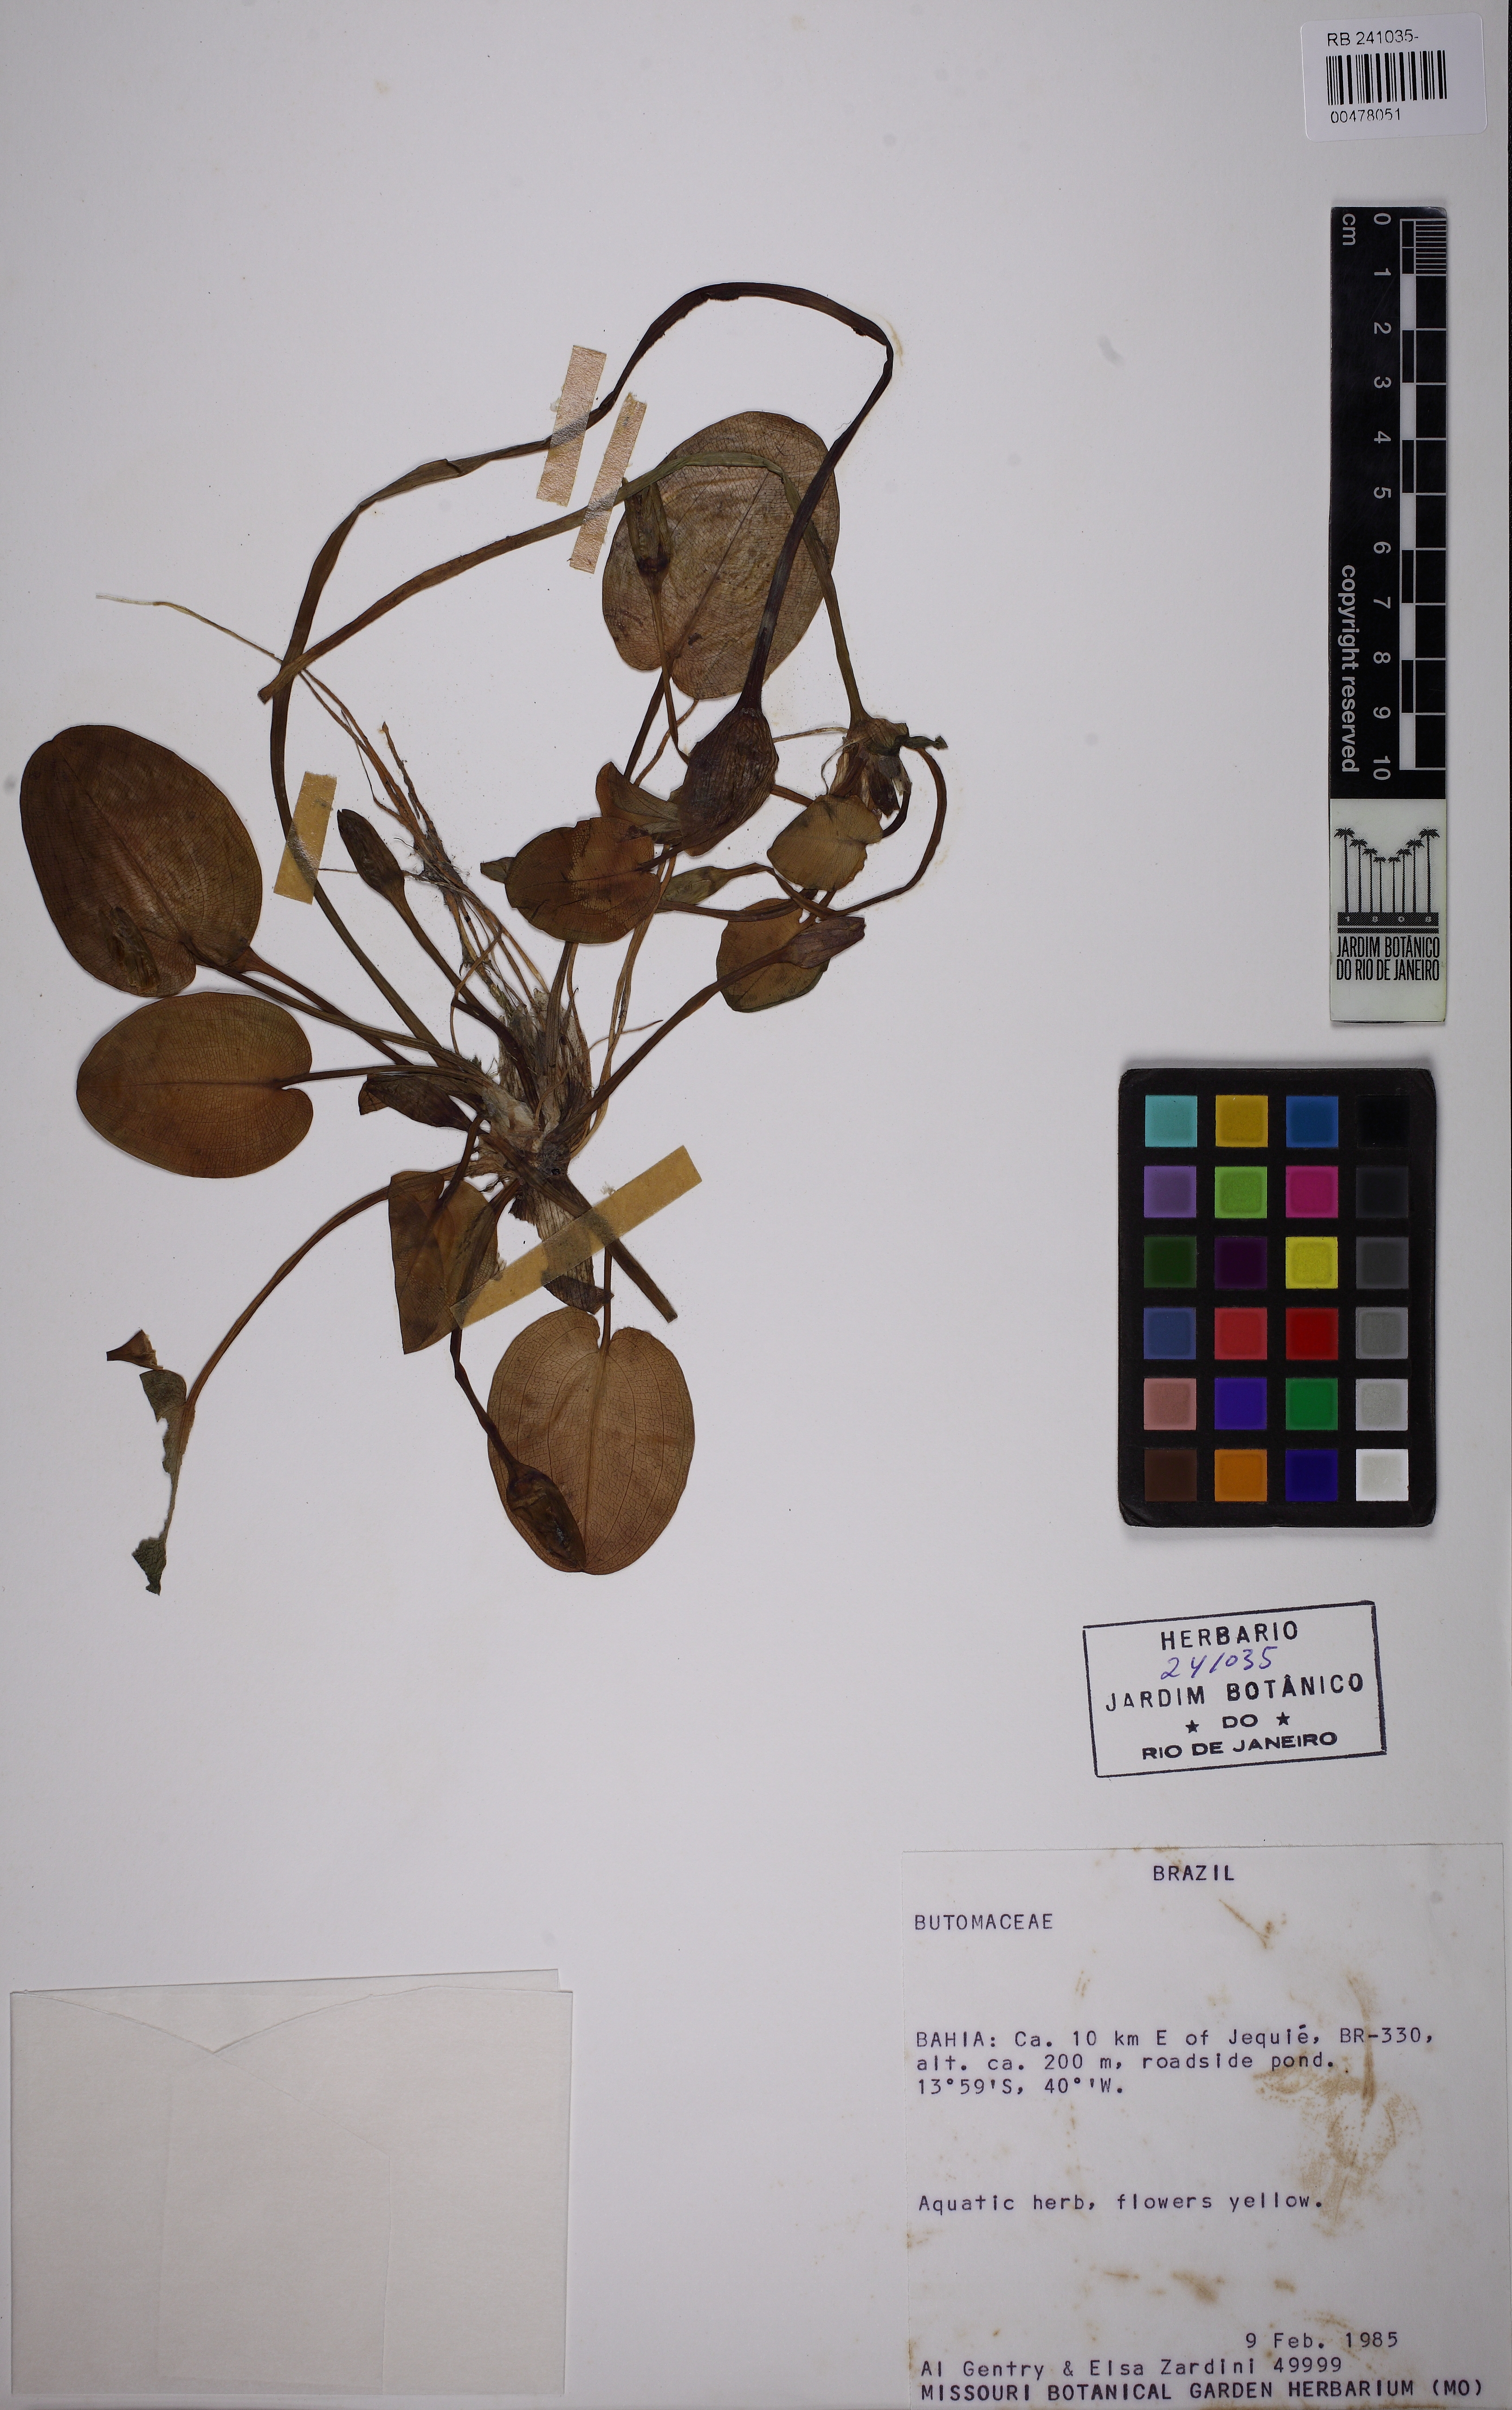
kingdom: Plantae
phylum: Tracheophyta
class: Liliopsida
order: Alismatales
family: Butomaceae
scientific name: Butomaceae
